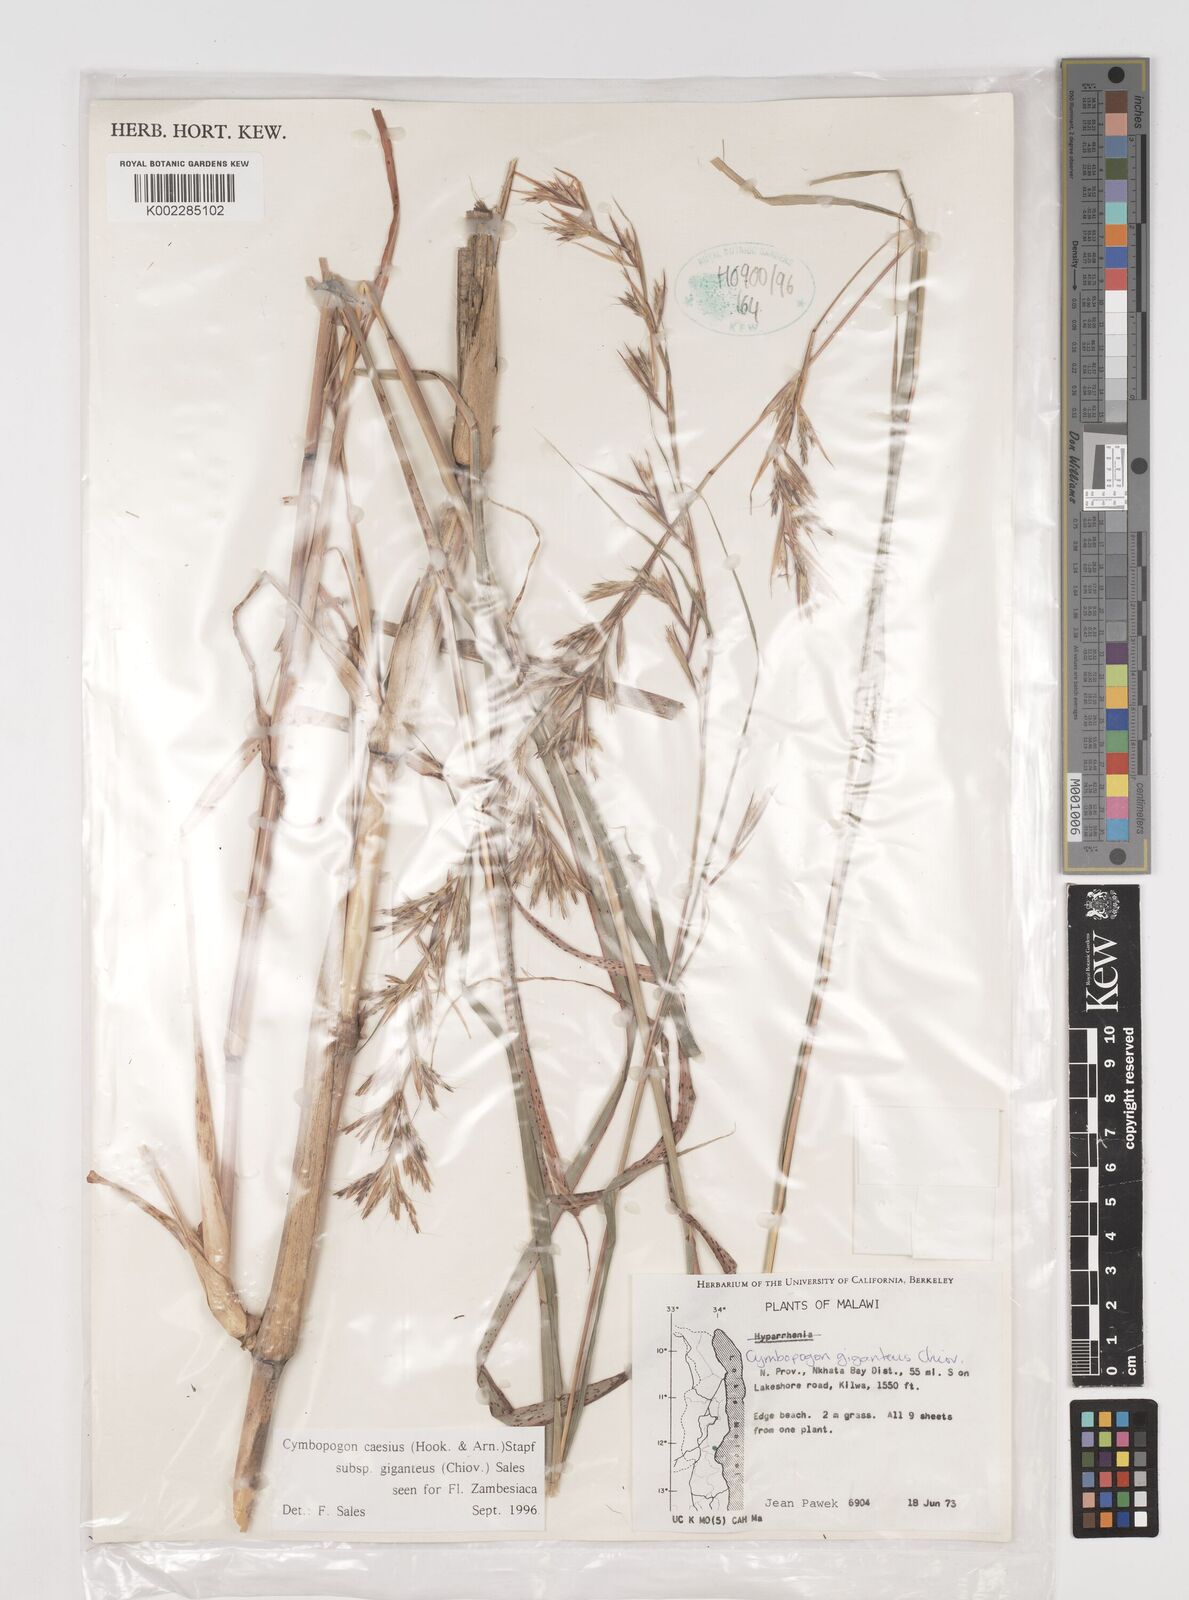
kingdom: Plantae
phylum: Tracheophyta
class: Liliopsida
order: Poales
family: Poaceae
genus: Cymbopogon
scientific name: Cymbopogon giganteus
